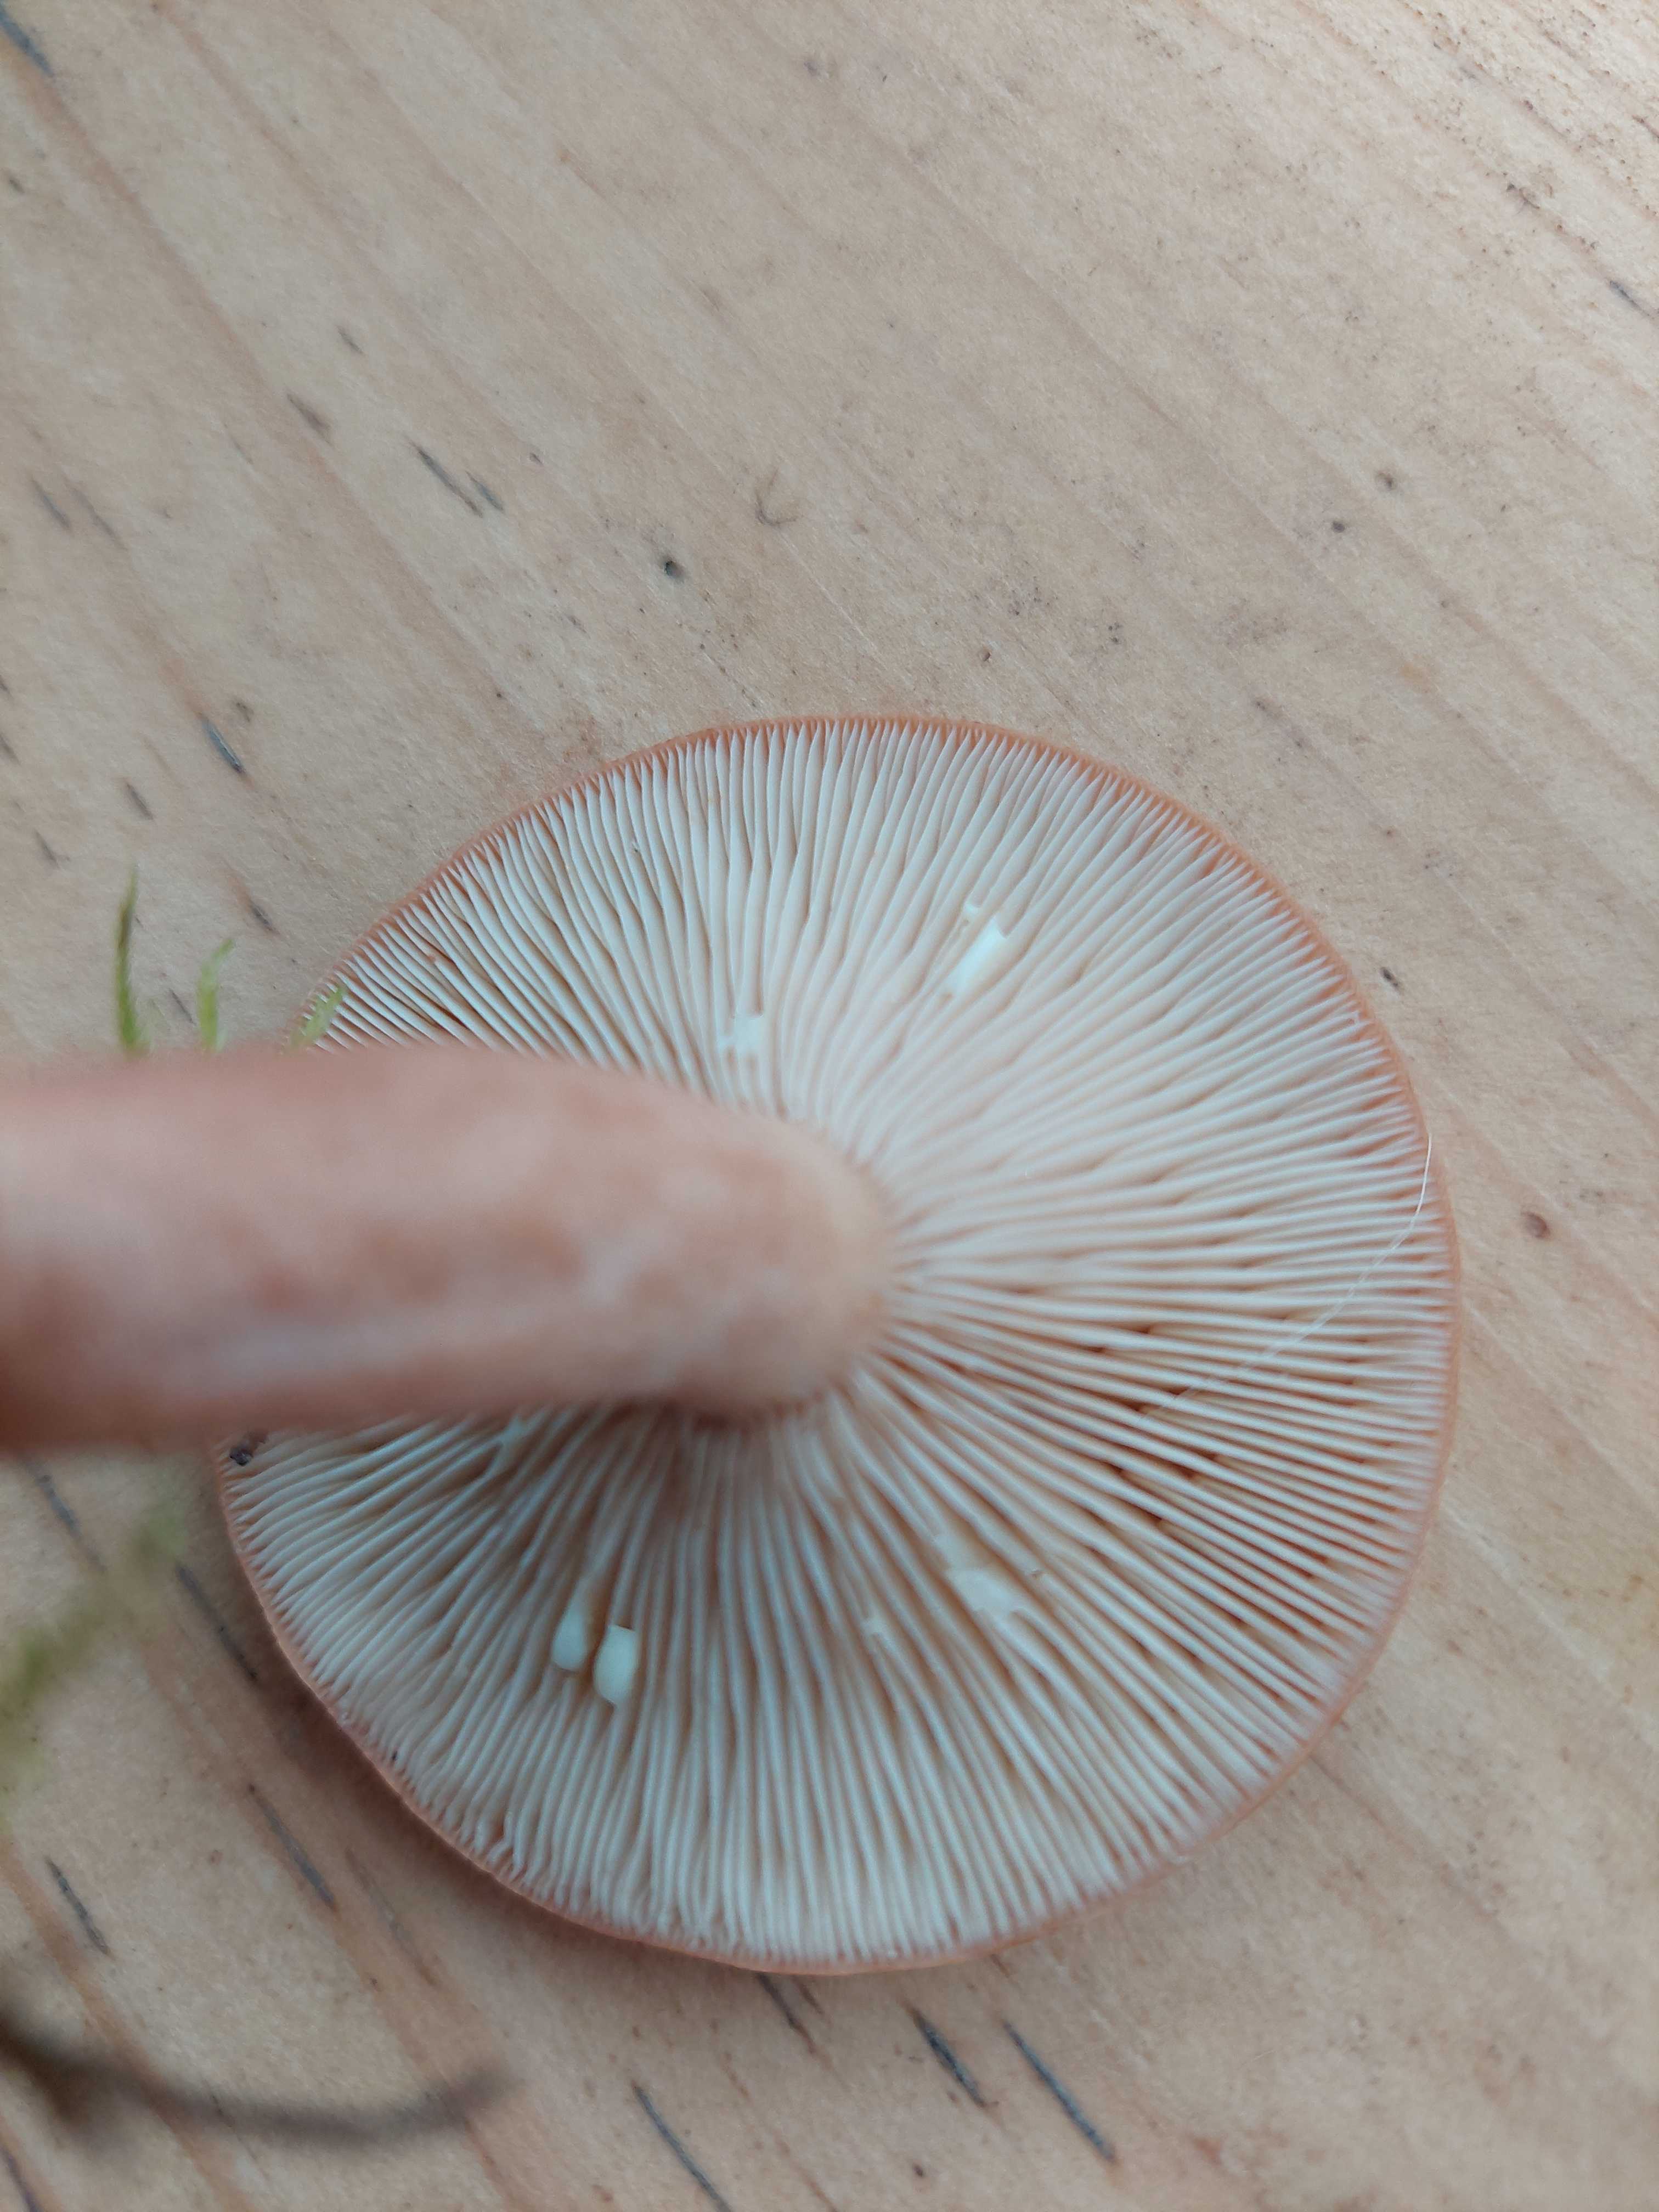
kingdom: Fungi
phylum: Basidiomycota
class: Agaricomycetes
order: Russulales
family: Russulaceae
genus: Lactarius
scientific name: Lactarius quietus
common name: ege-mælkehat
